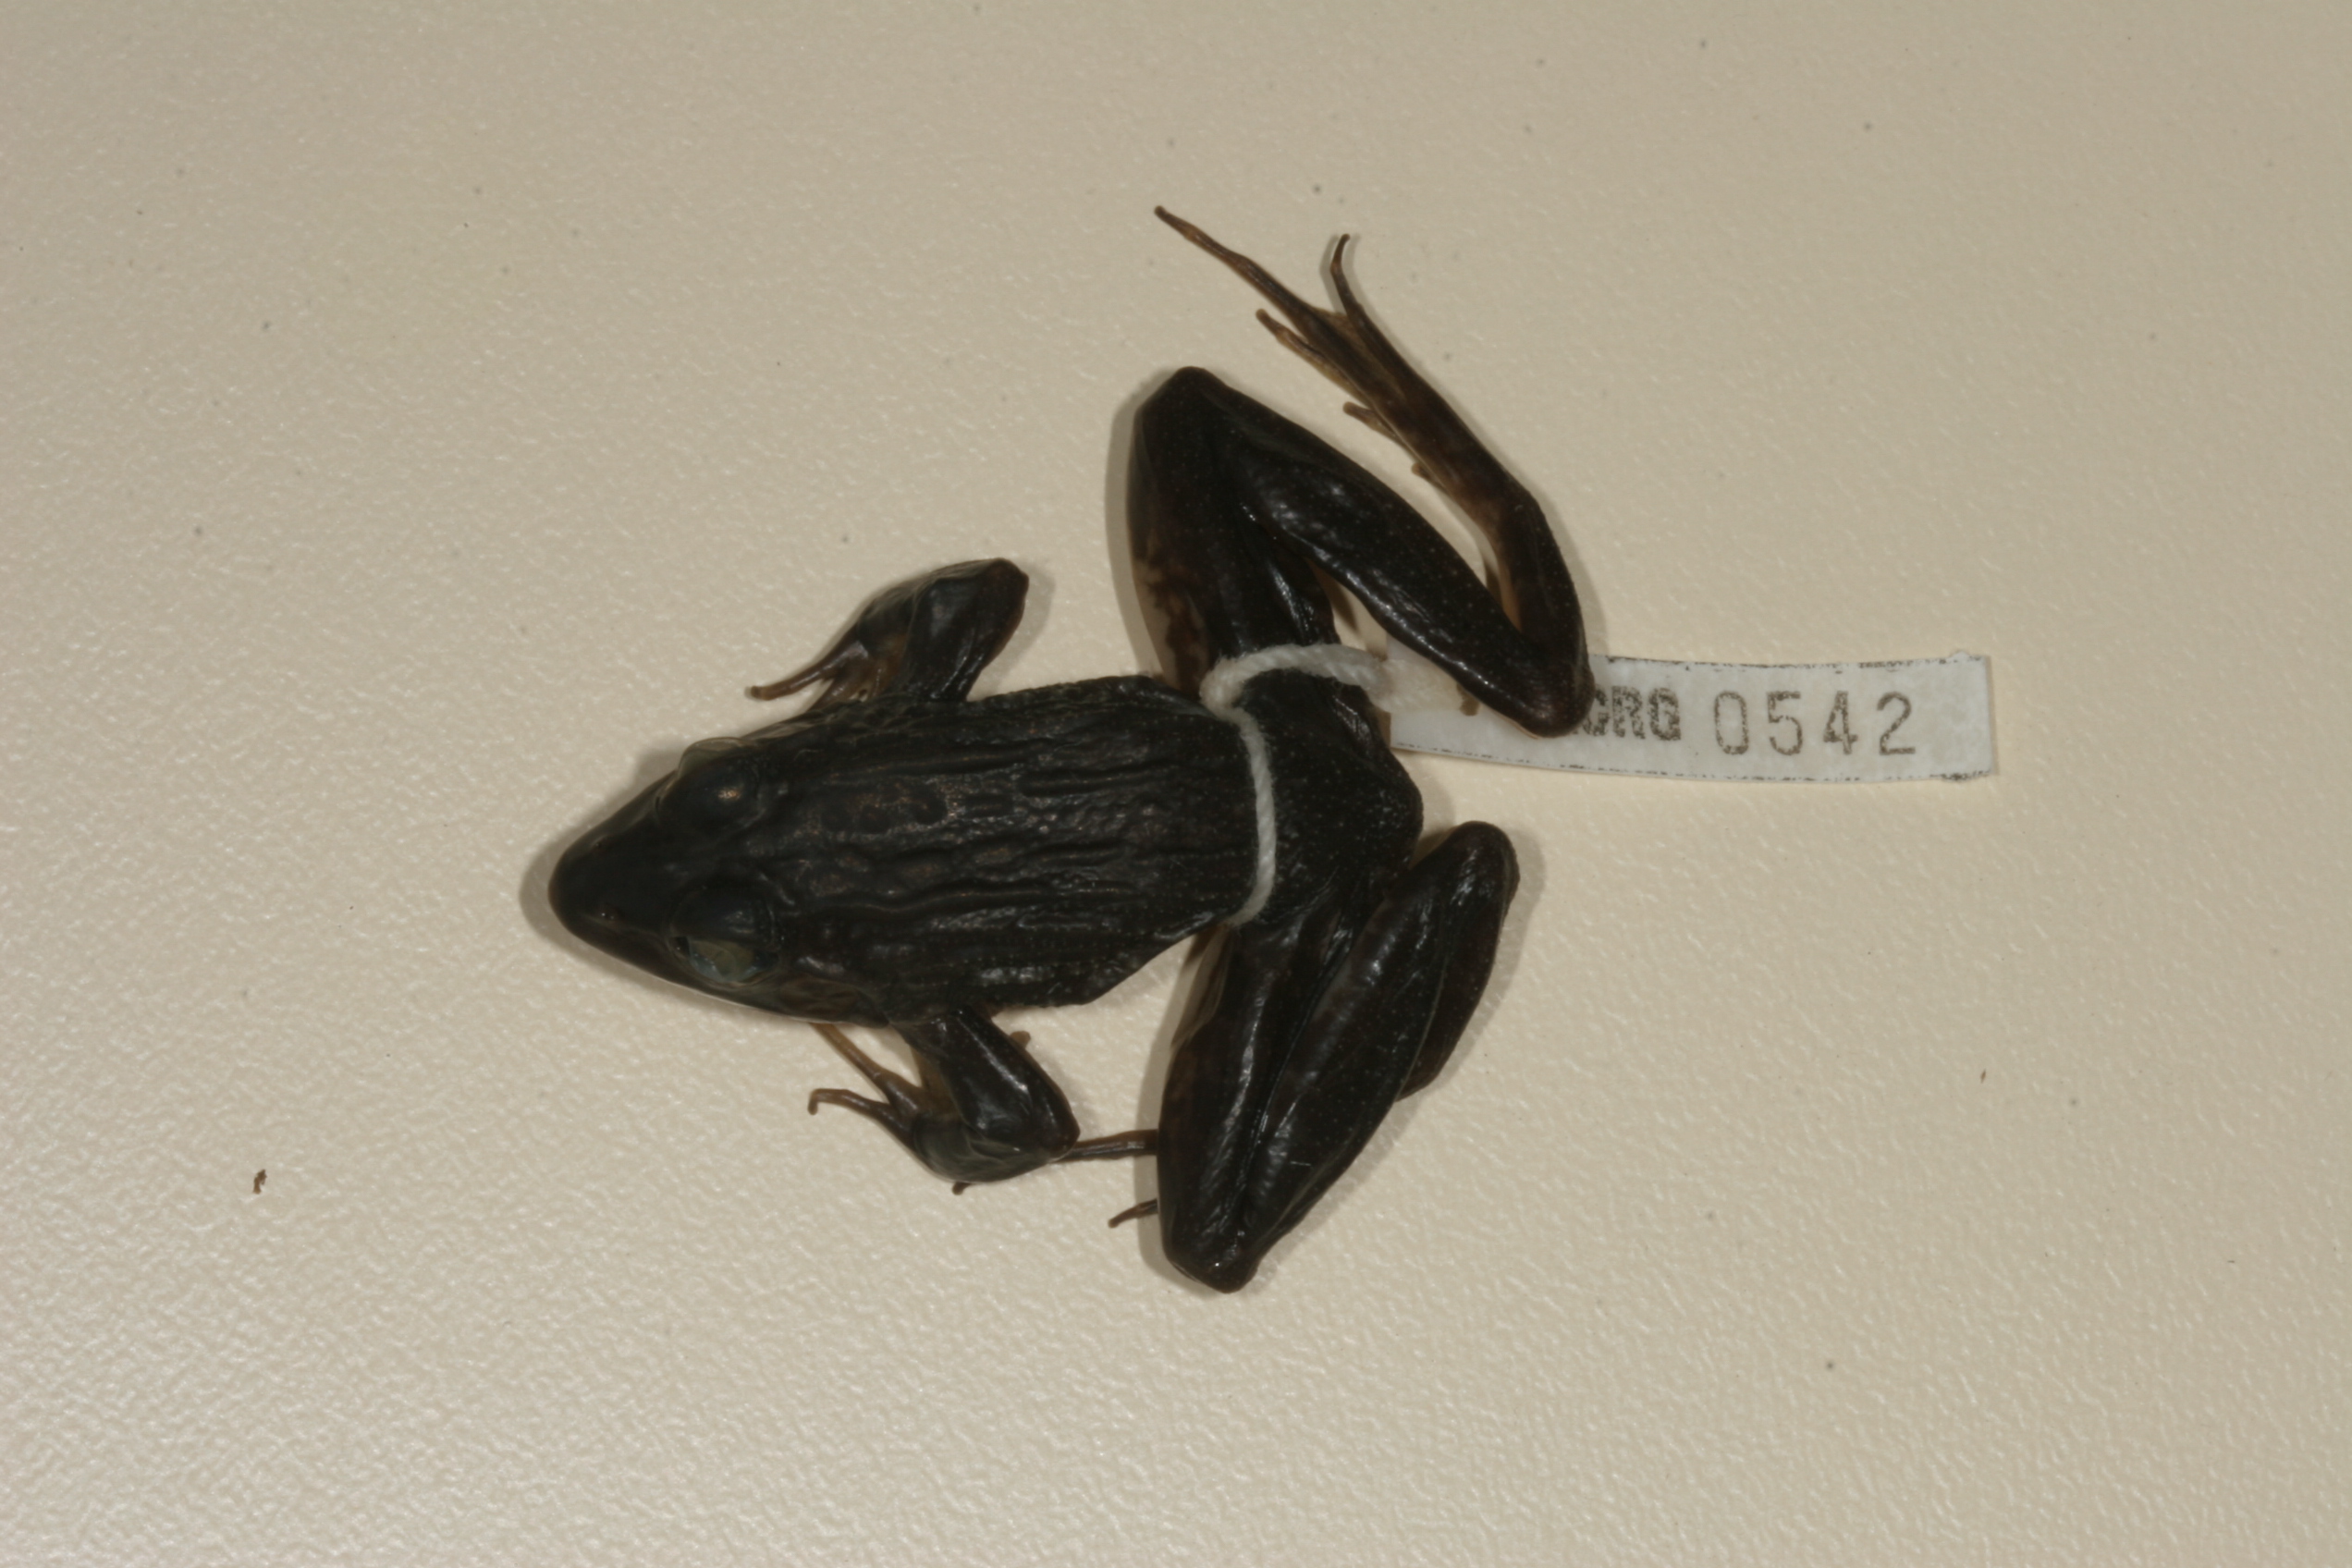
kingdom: Animalia
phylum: Chordata
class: Amphibia
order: Anura
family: Pyxicephalidae
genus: Amietia
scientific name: Amietia angolensis
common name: Dusky-throated frog
